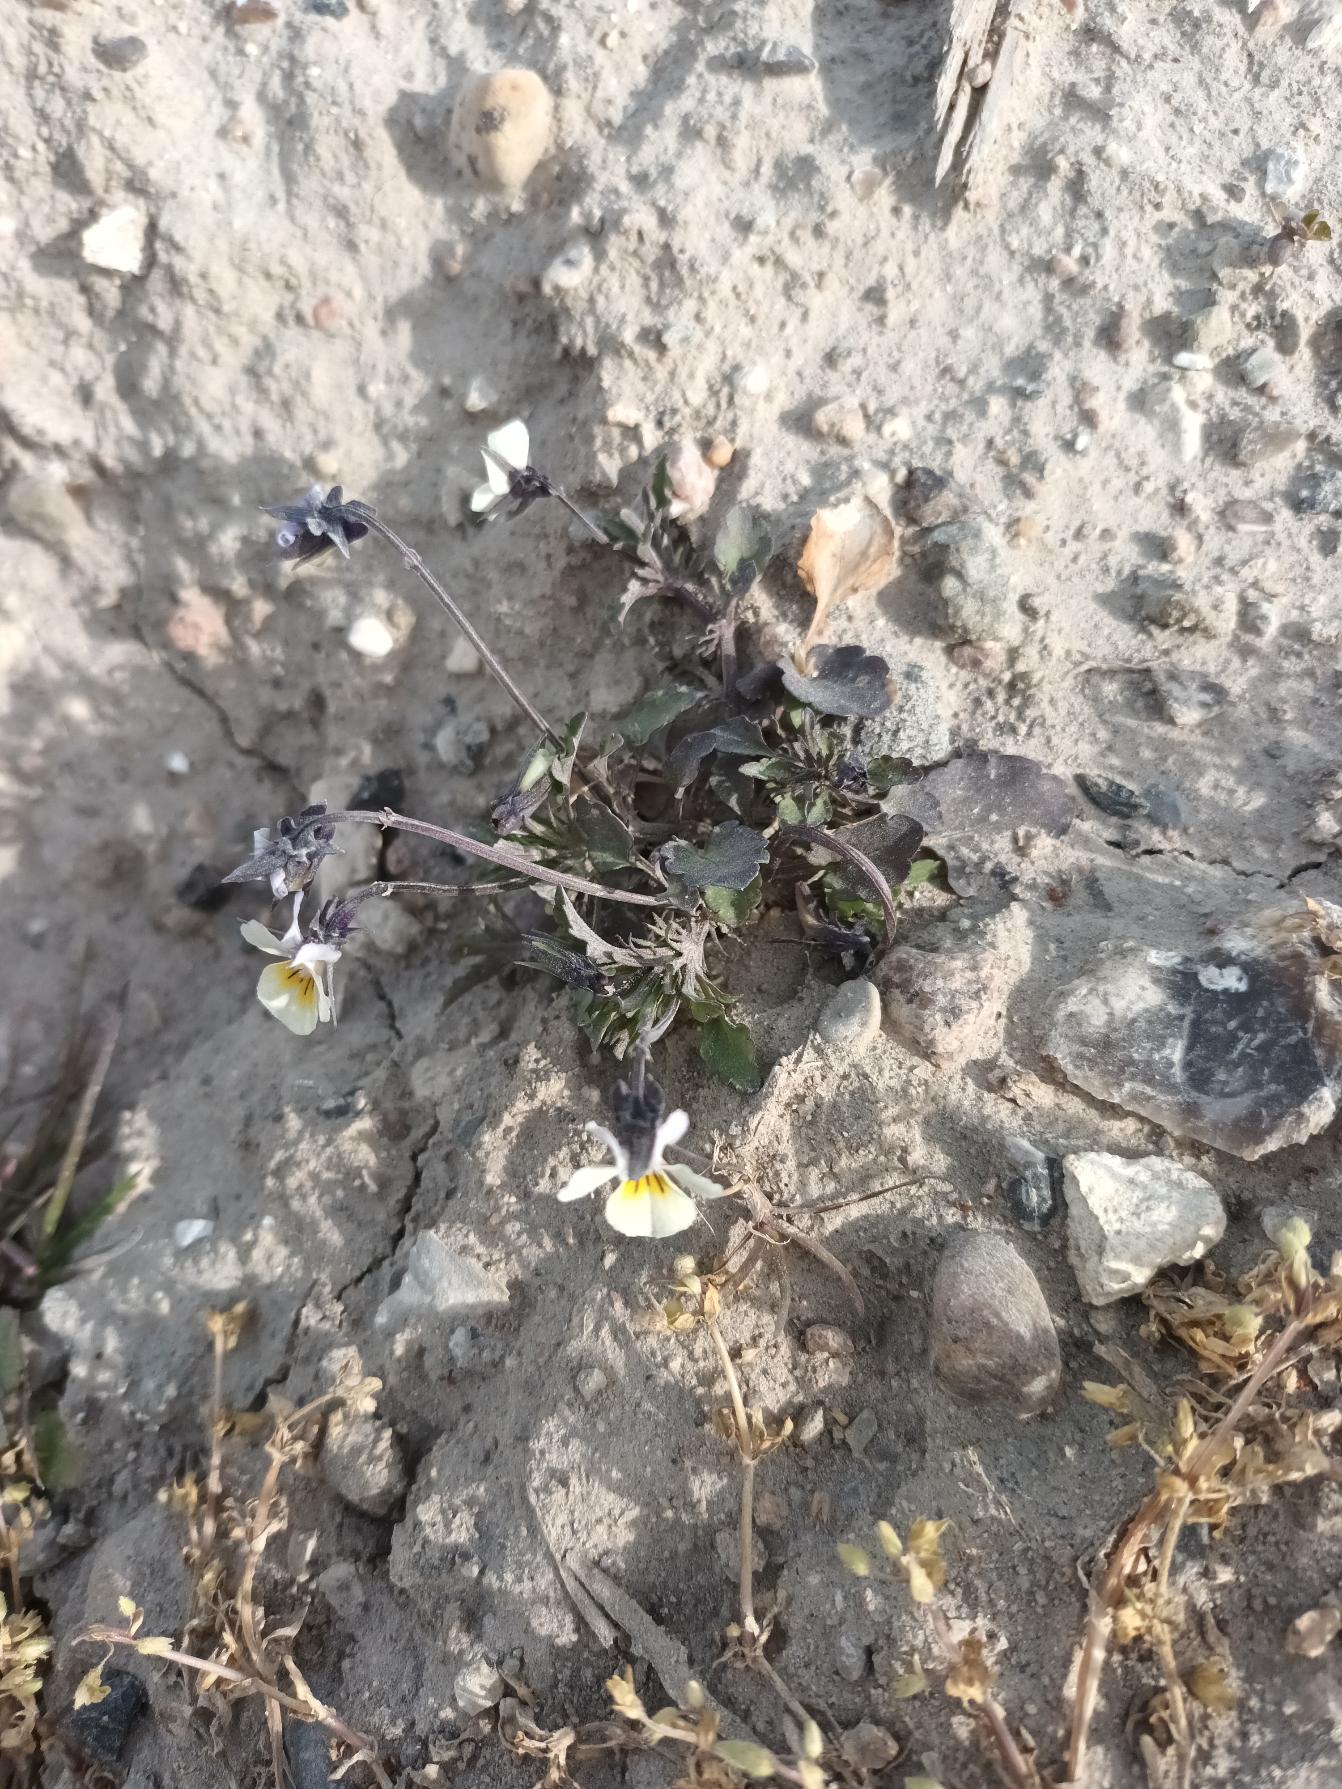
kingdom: Plantae
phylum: Tracheophyta
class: Magnoliopsida
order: Malpighiales
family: Violaceae
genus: Viola
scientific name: Viola arvensis
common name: Ager-stedmoderblomst
